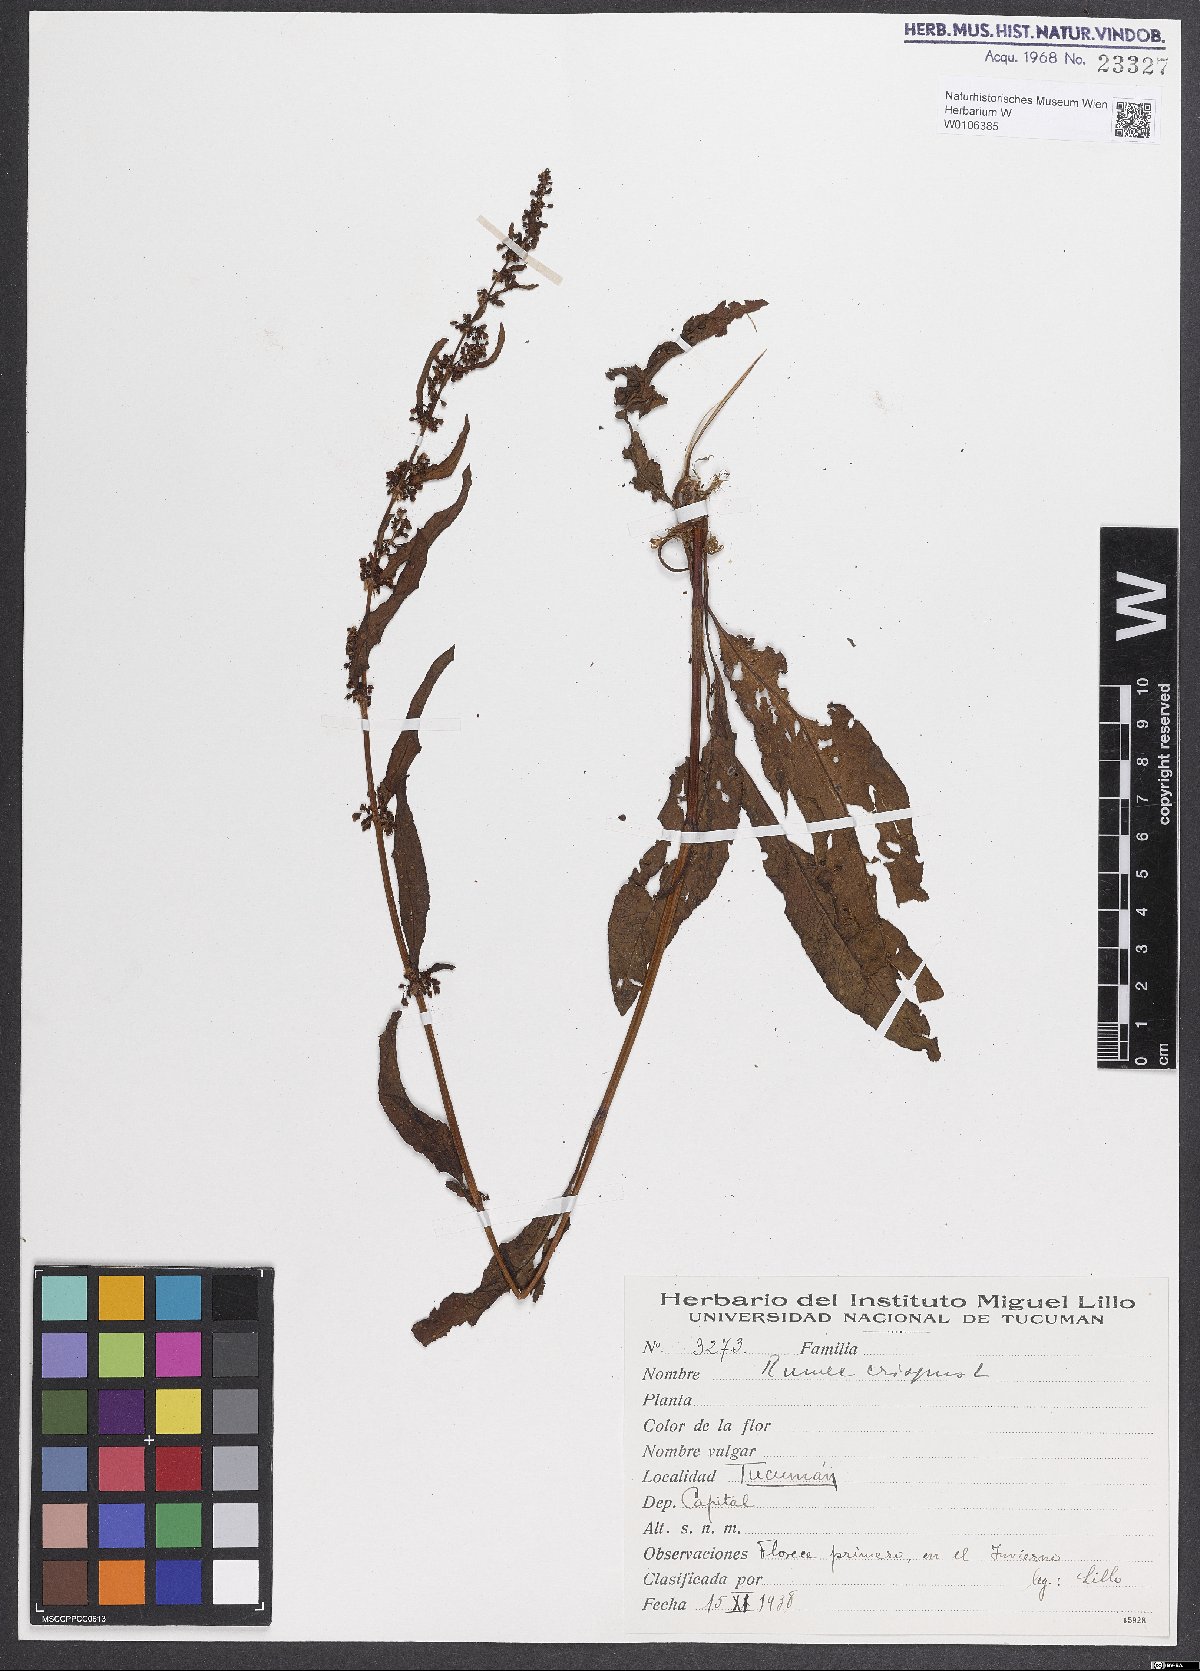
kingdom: Plantae
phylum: Tracheophyta
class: Magnoliopsida
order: Caryophyllales
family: Polygonaceae
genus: Rumex
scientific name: Rumex crispus
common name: Curled dock
